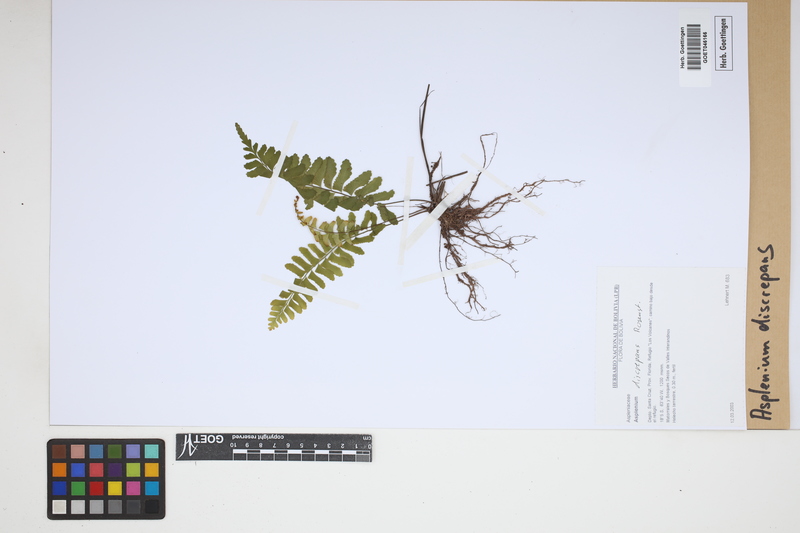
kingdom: Plantae
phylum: Tracheophyta
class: Polypodiopsida
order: Polypodiales
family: Aspleniaceae
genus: Asplenium
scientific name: Asplenium discrepans
